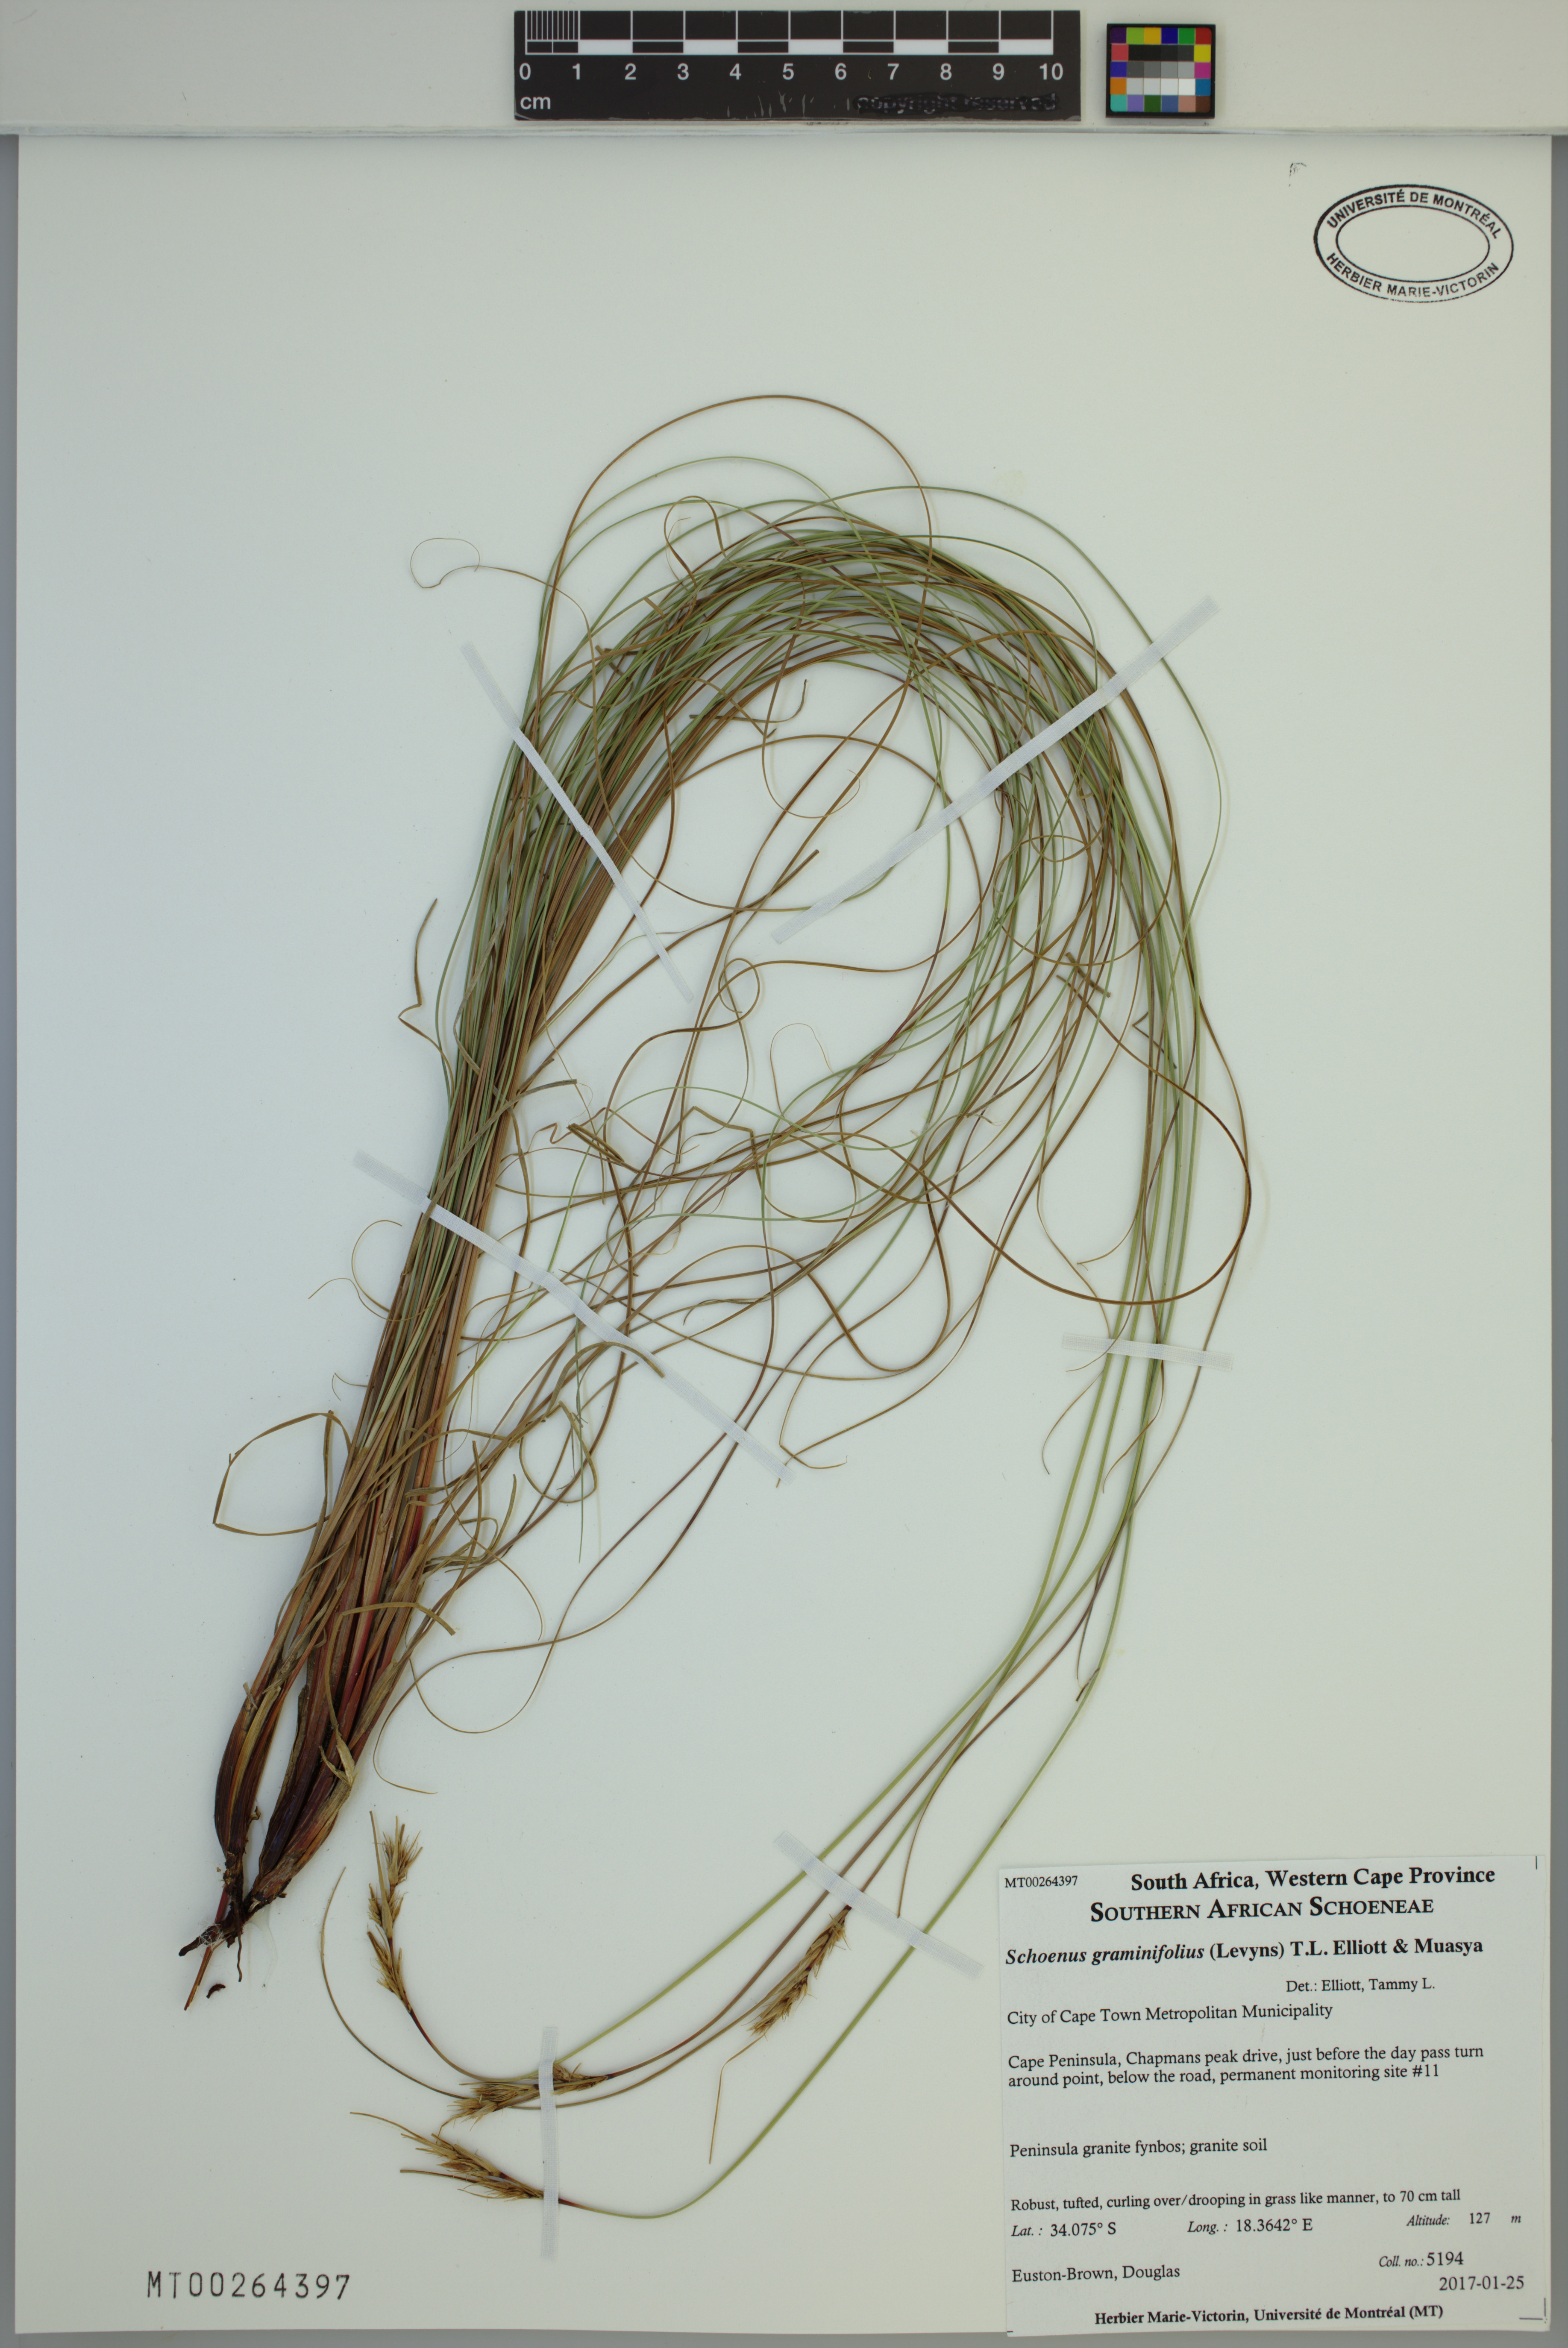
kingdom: Plantae
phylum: Tracheophyta
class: Liliopsida
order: Poales
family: Cyperaceae
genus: Schoenus
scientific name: Schoenus graminifolius
